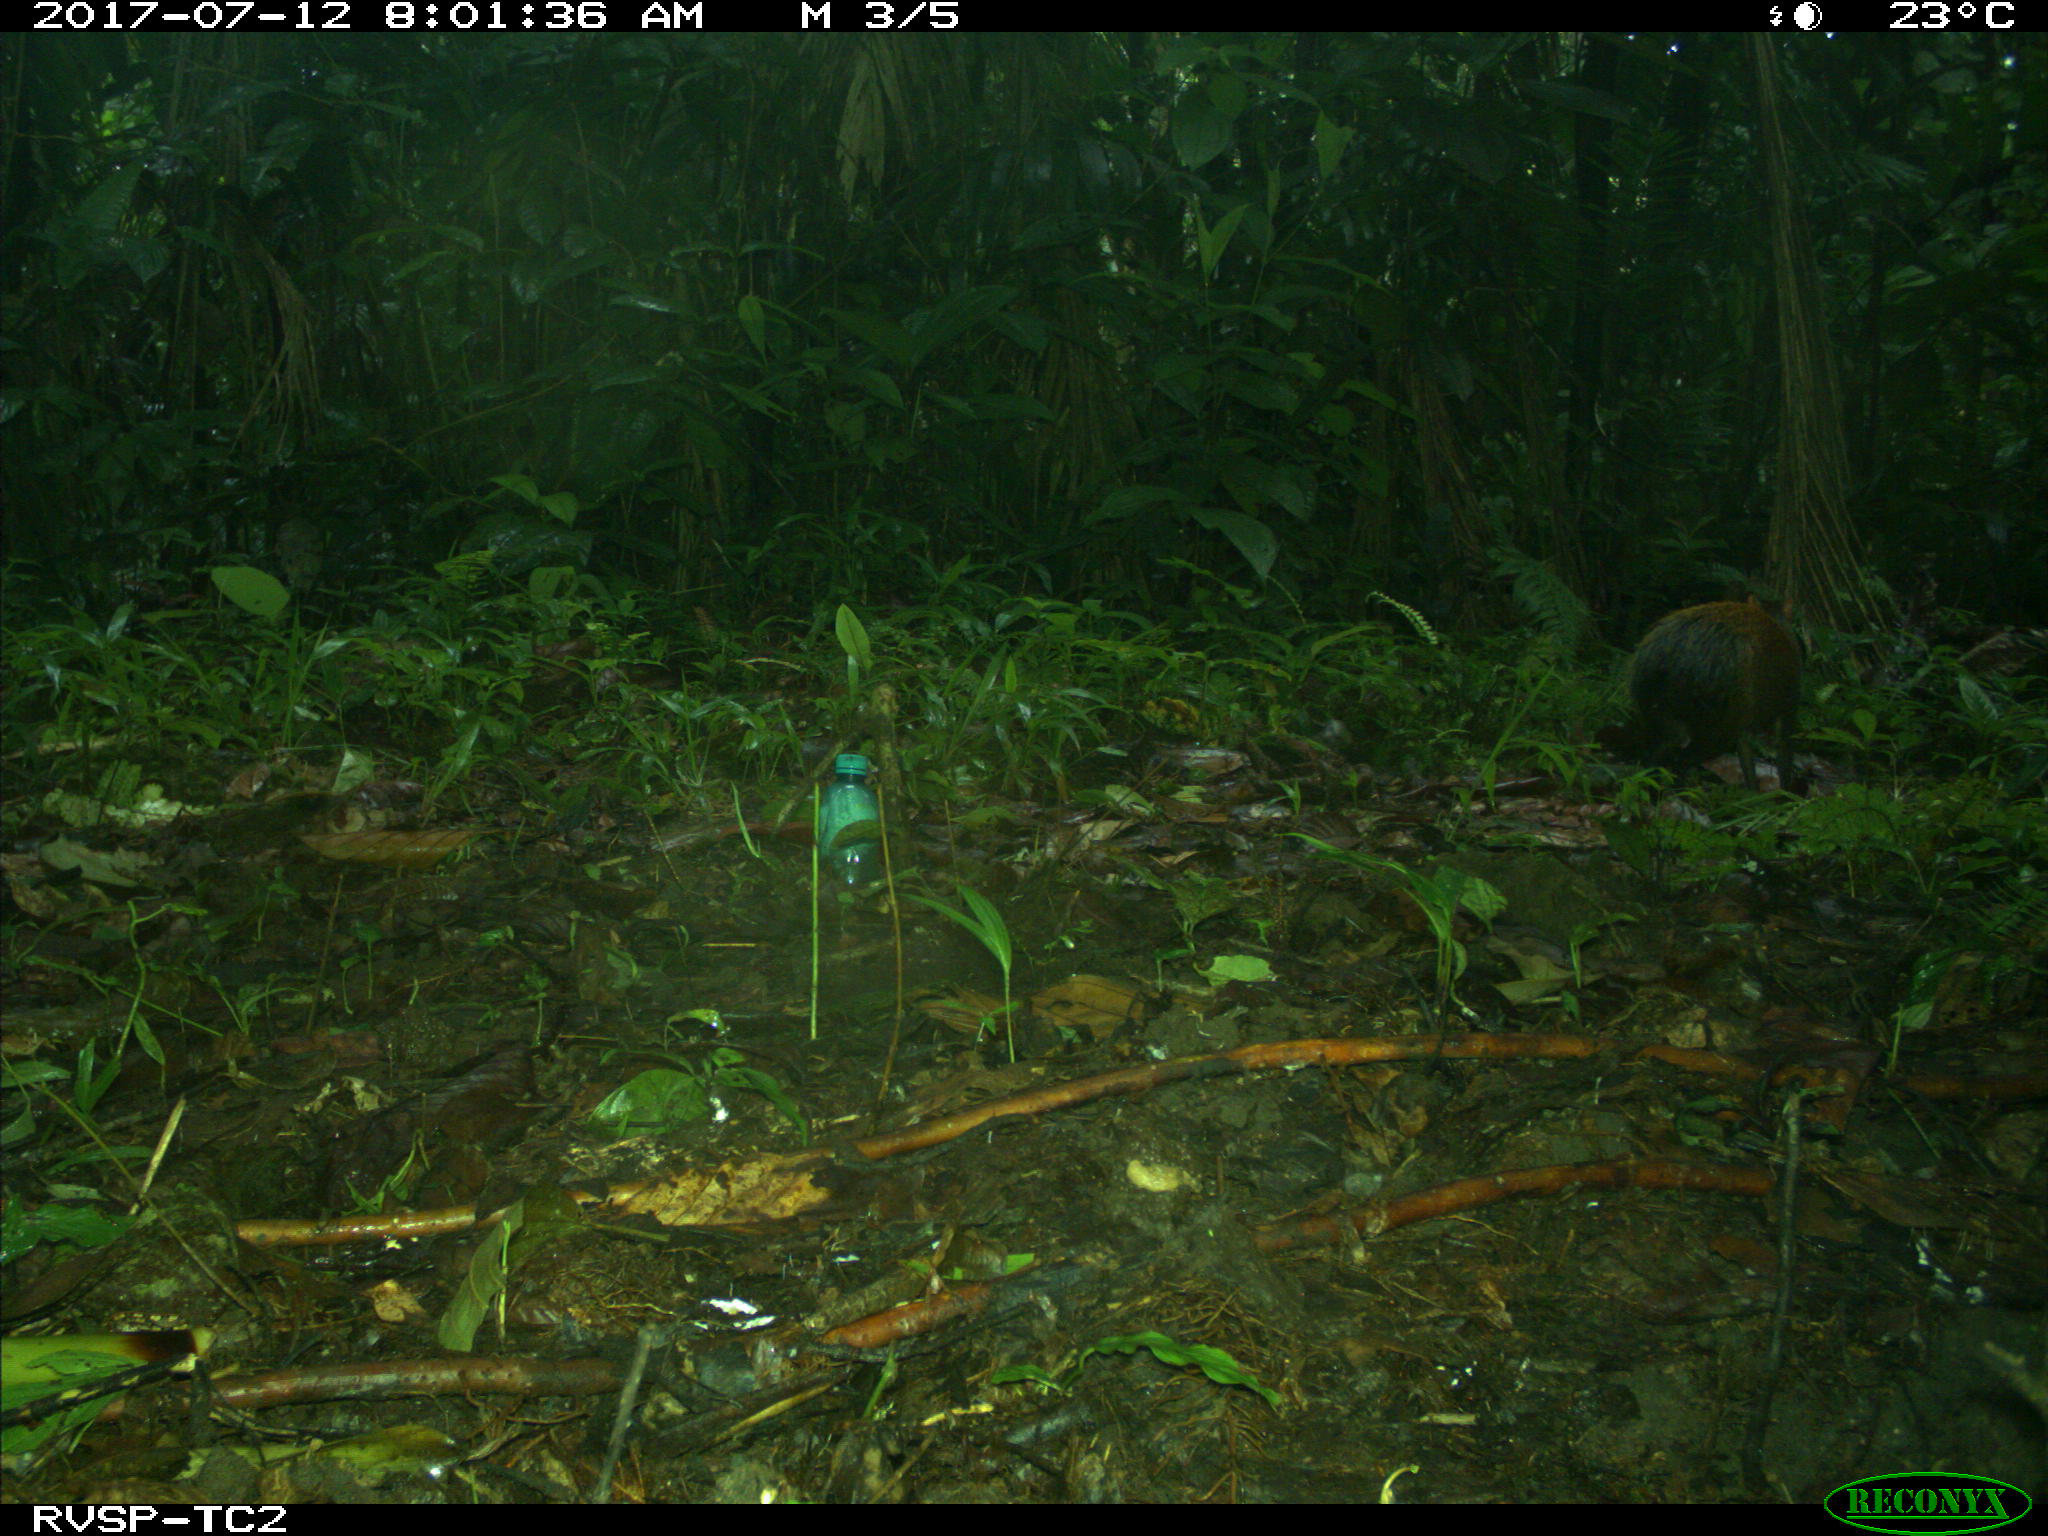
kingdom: Animalia
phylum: Chordata
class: Mammalia
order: Rodentia
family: Dasyproctidae
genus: Dasyprocta
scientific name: Dasyprocta punctata
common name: Central american agouti
